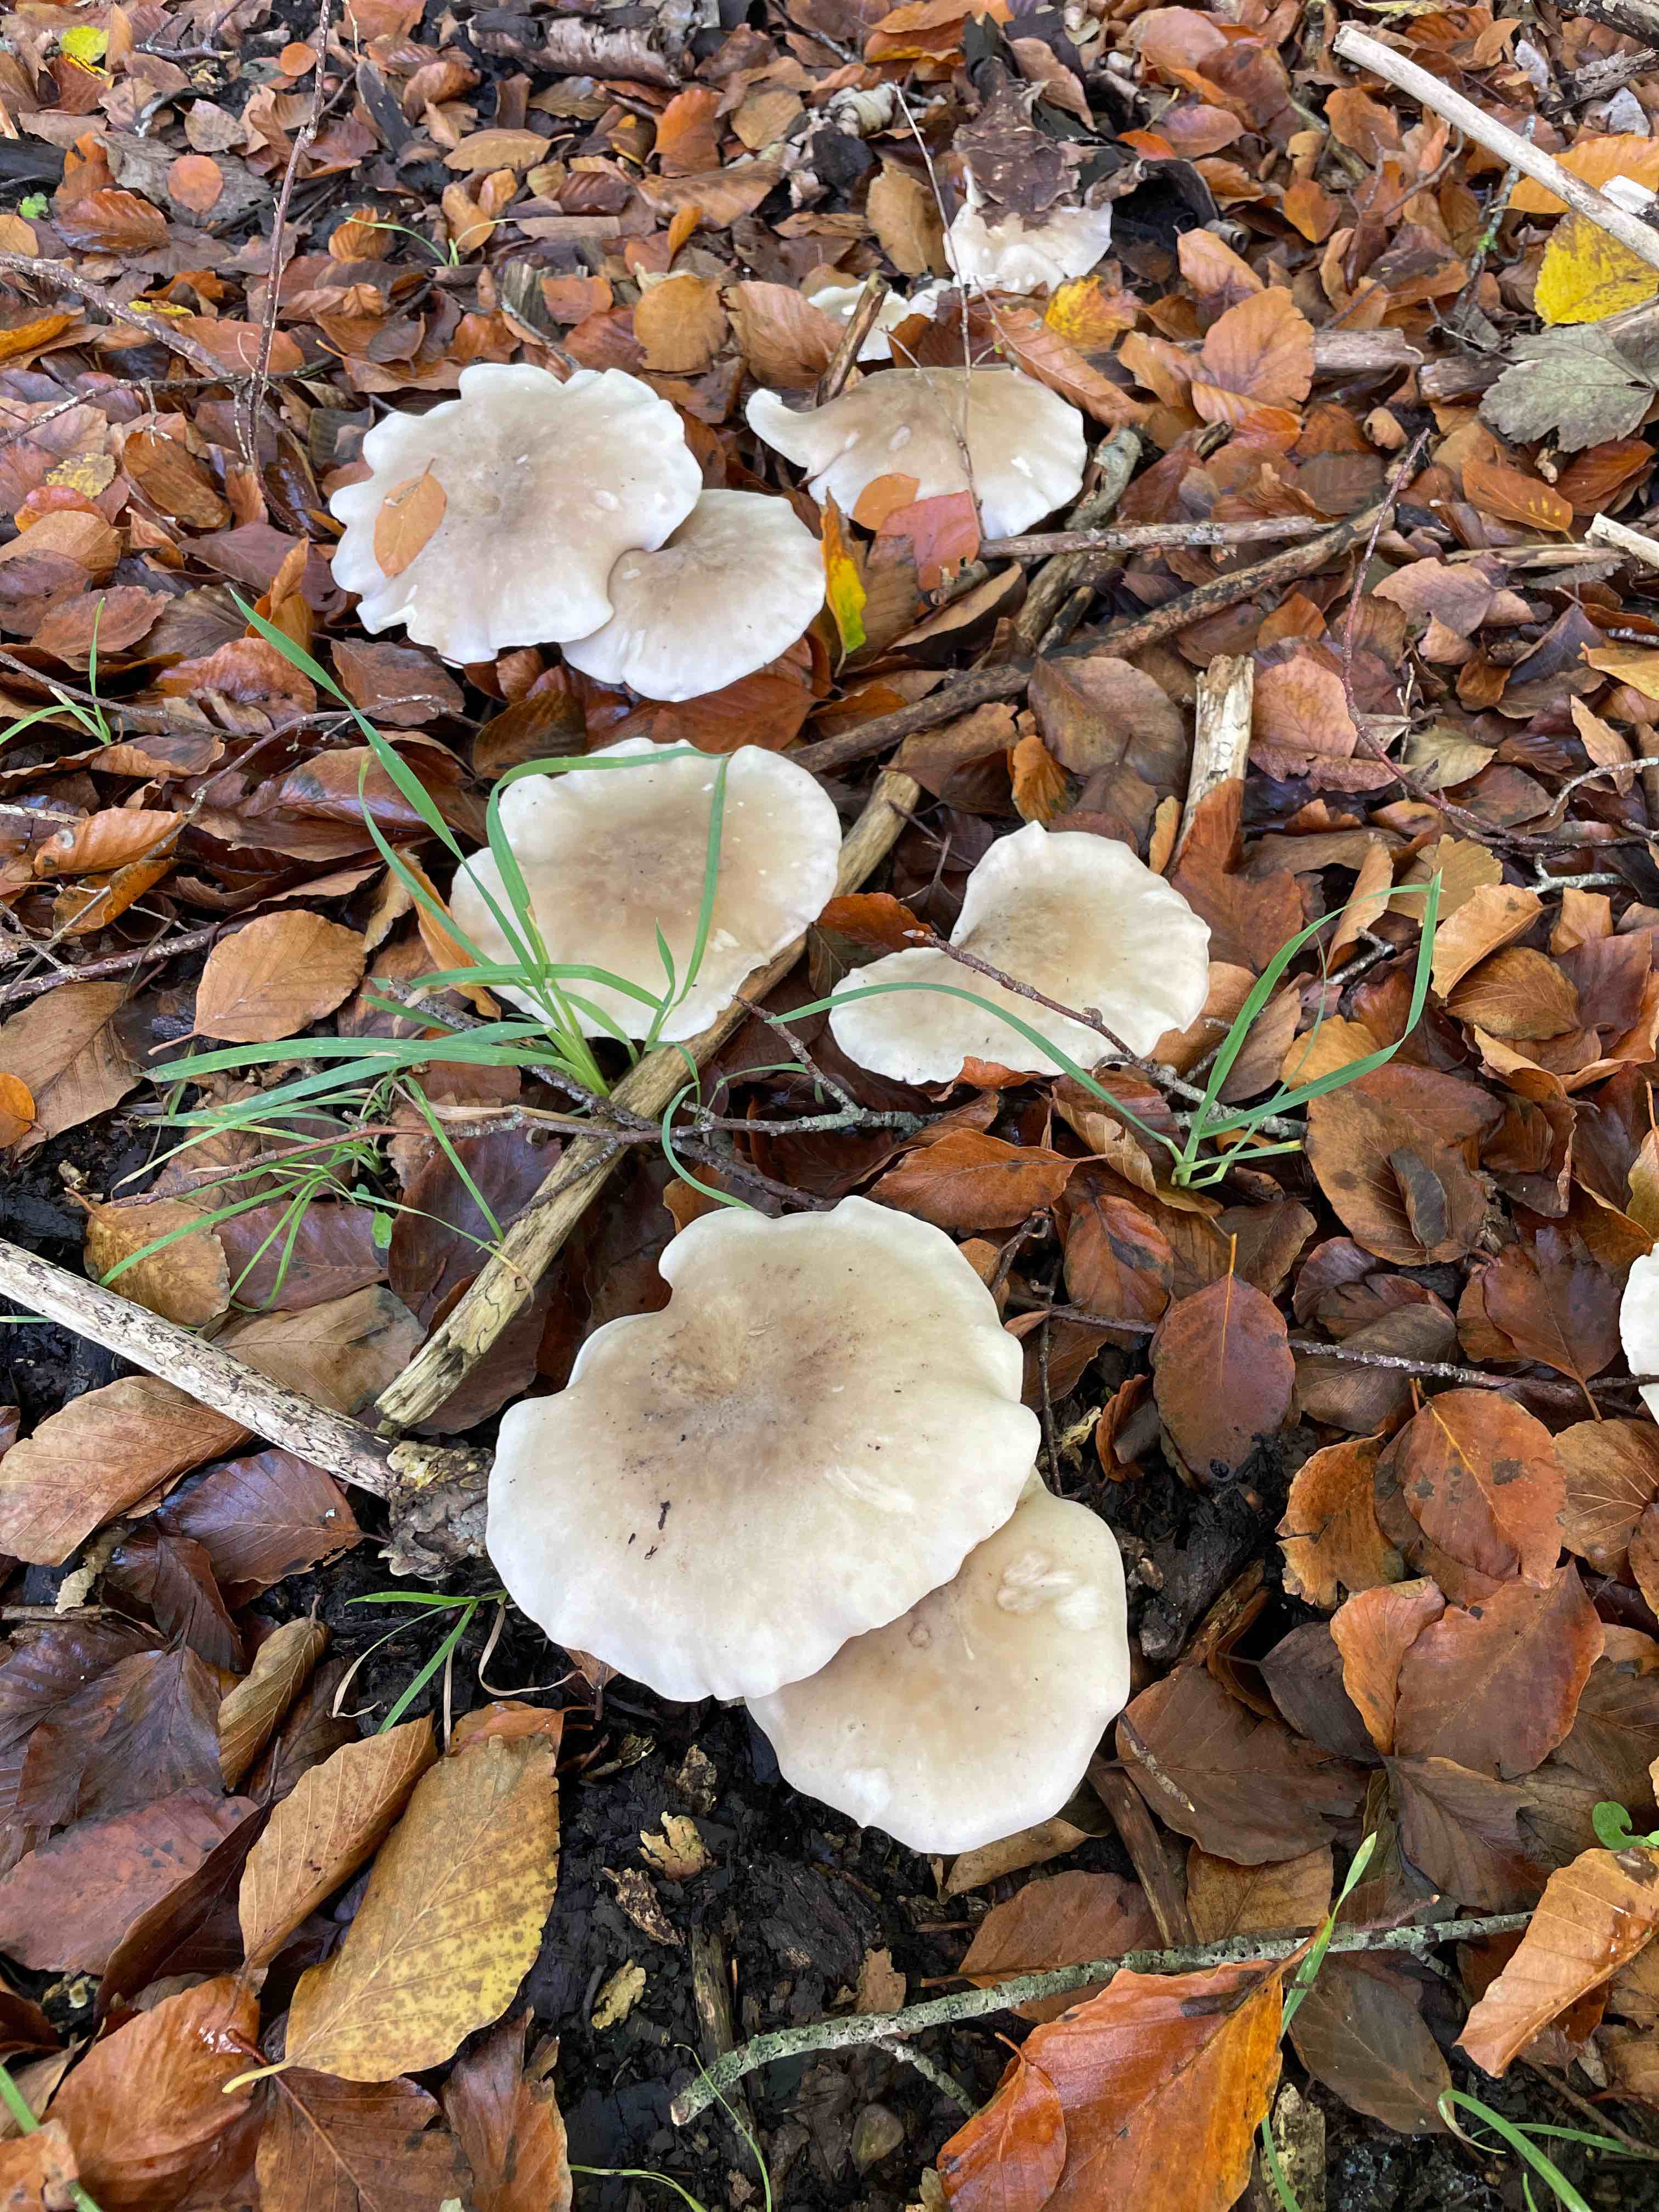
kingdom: Fungi
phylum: Basidiomycota
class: Agaricomycetes
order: Agaricales
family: Tricholomataceae
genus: Clitocybe
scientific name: Clitocybe nebularis
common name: tåge-tragthat
